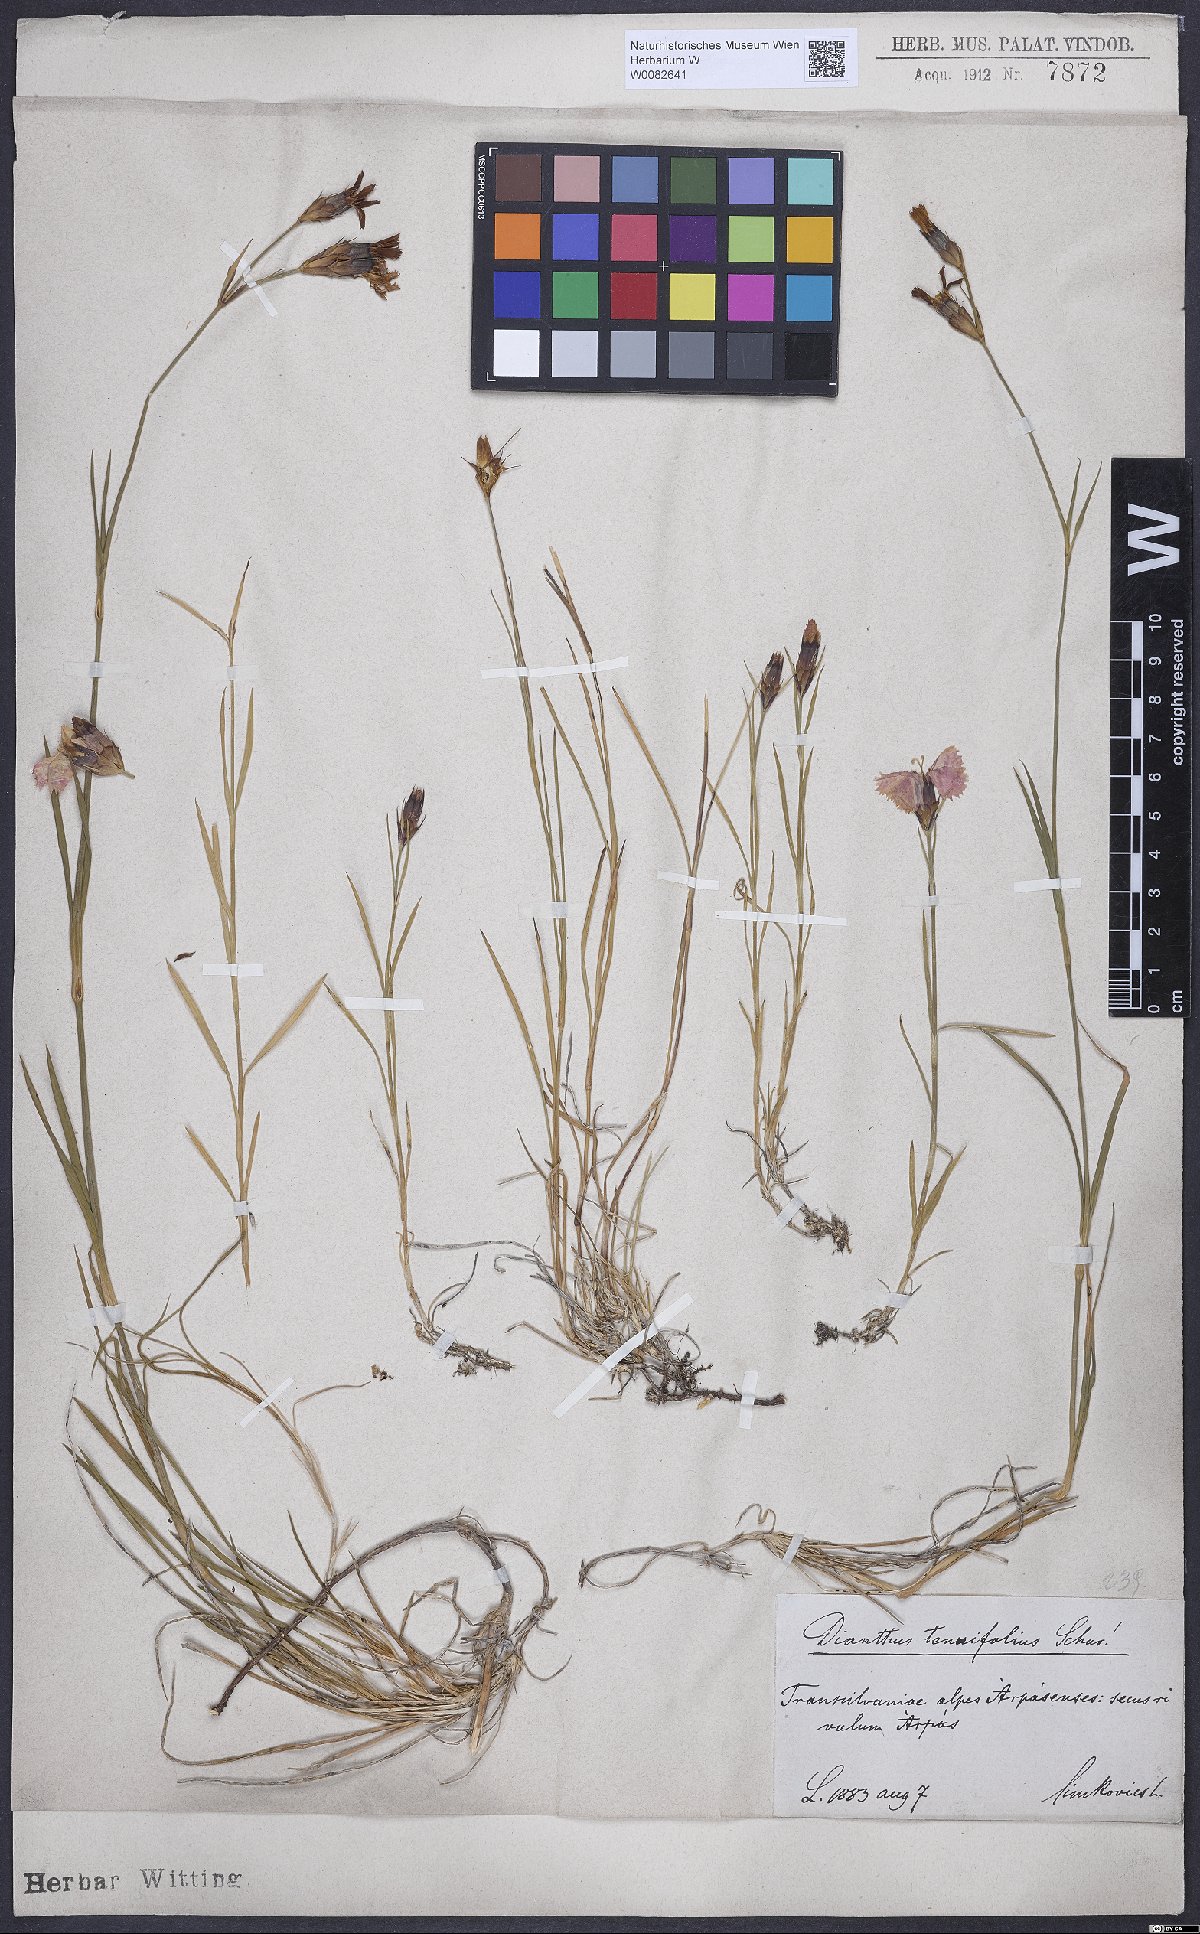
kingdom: Plantae
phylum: Tracheophyta
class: Magnoliopsida
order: Caryophyllales
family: Caryophyllaceae
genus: Dianthus
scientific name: Dianthus carthusianorum
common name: Carthusian pink
